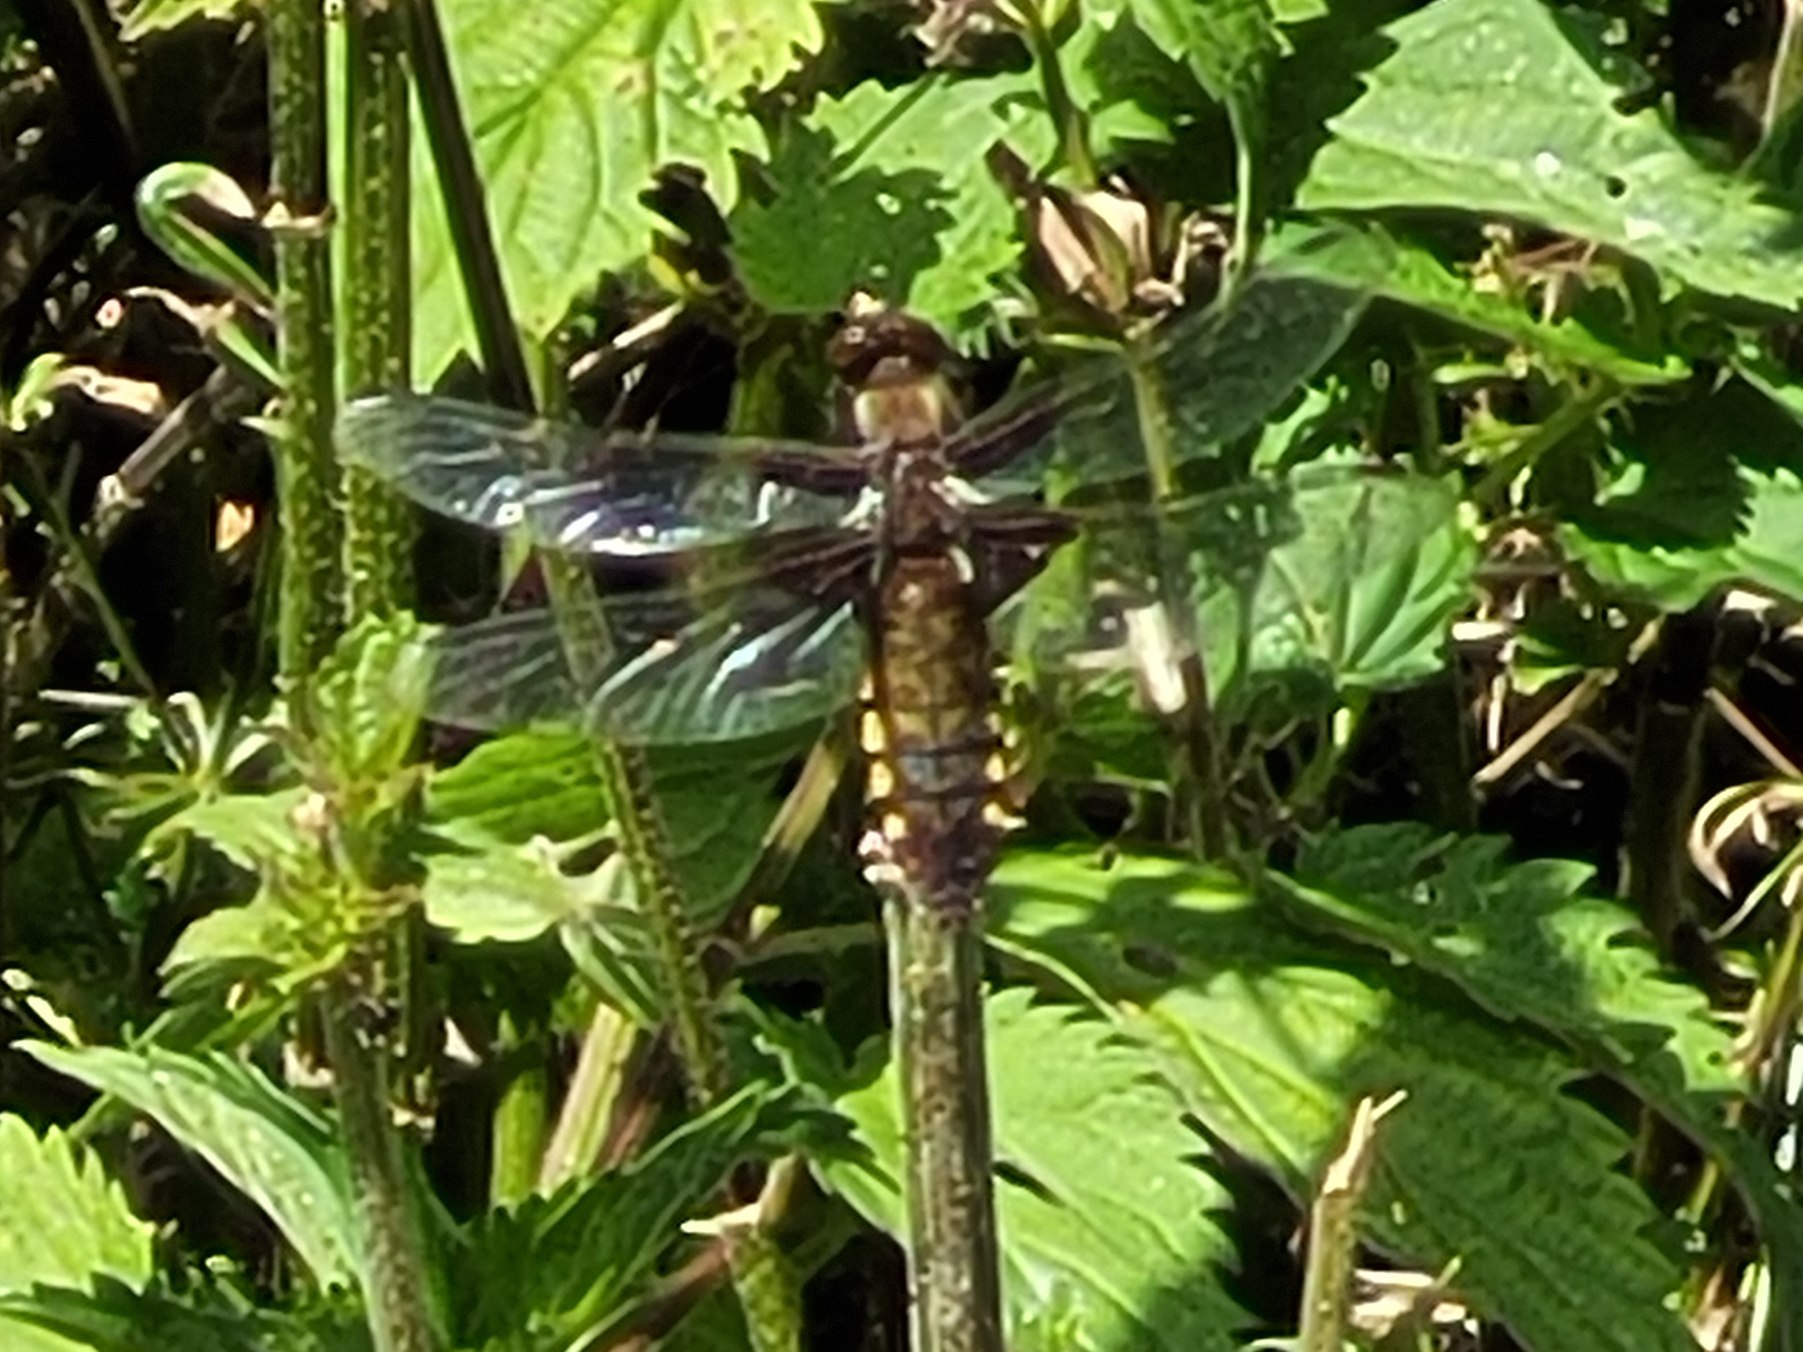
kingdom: Animalia
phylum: Arthropoda
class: Insecta
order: Odonata
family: Libellulidae
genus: Libellula
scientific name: Libellula depressa
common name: Blå libel
